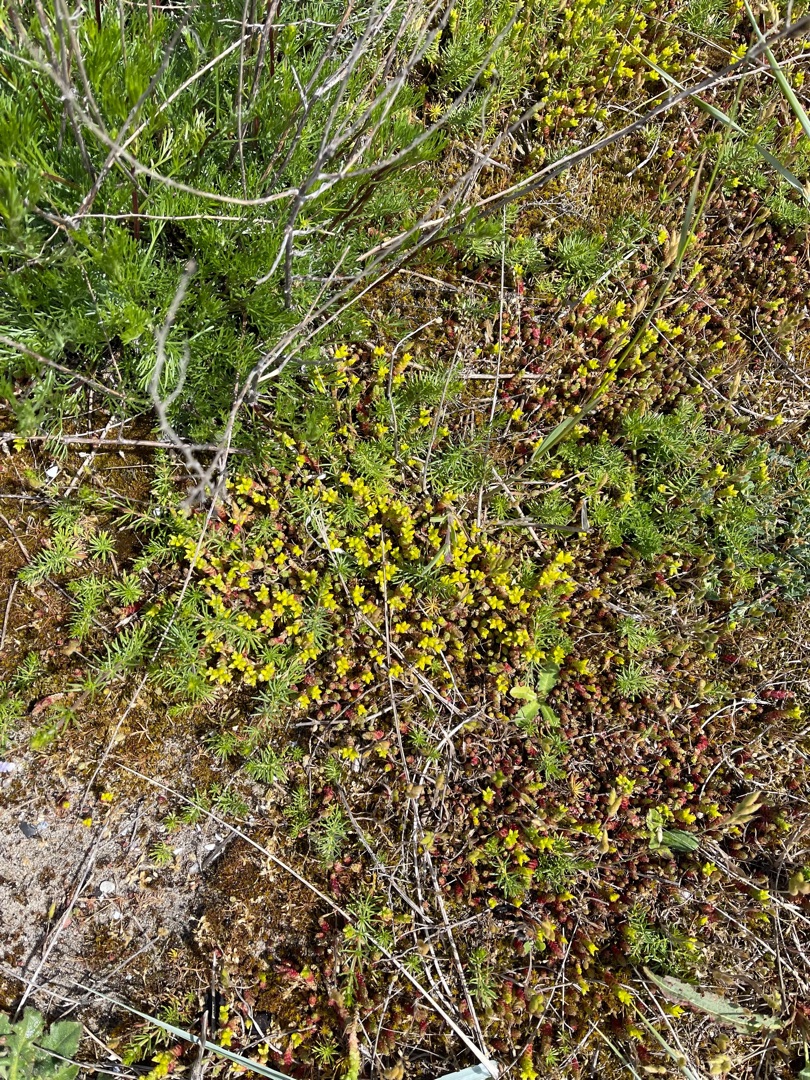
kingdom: Plantae
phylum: Tracheophyta
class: Magnoliopsida
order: Saxifragales
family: Crassulaceae
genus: Sedum
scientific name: Sedum acre
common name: Bidende stenurt
